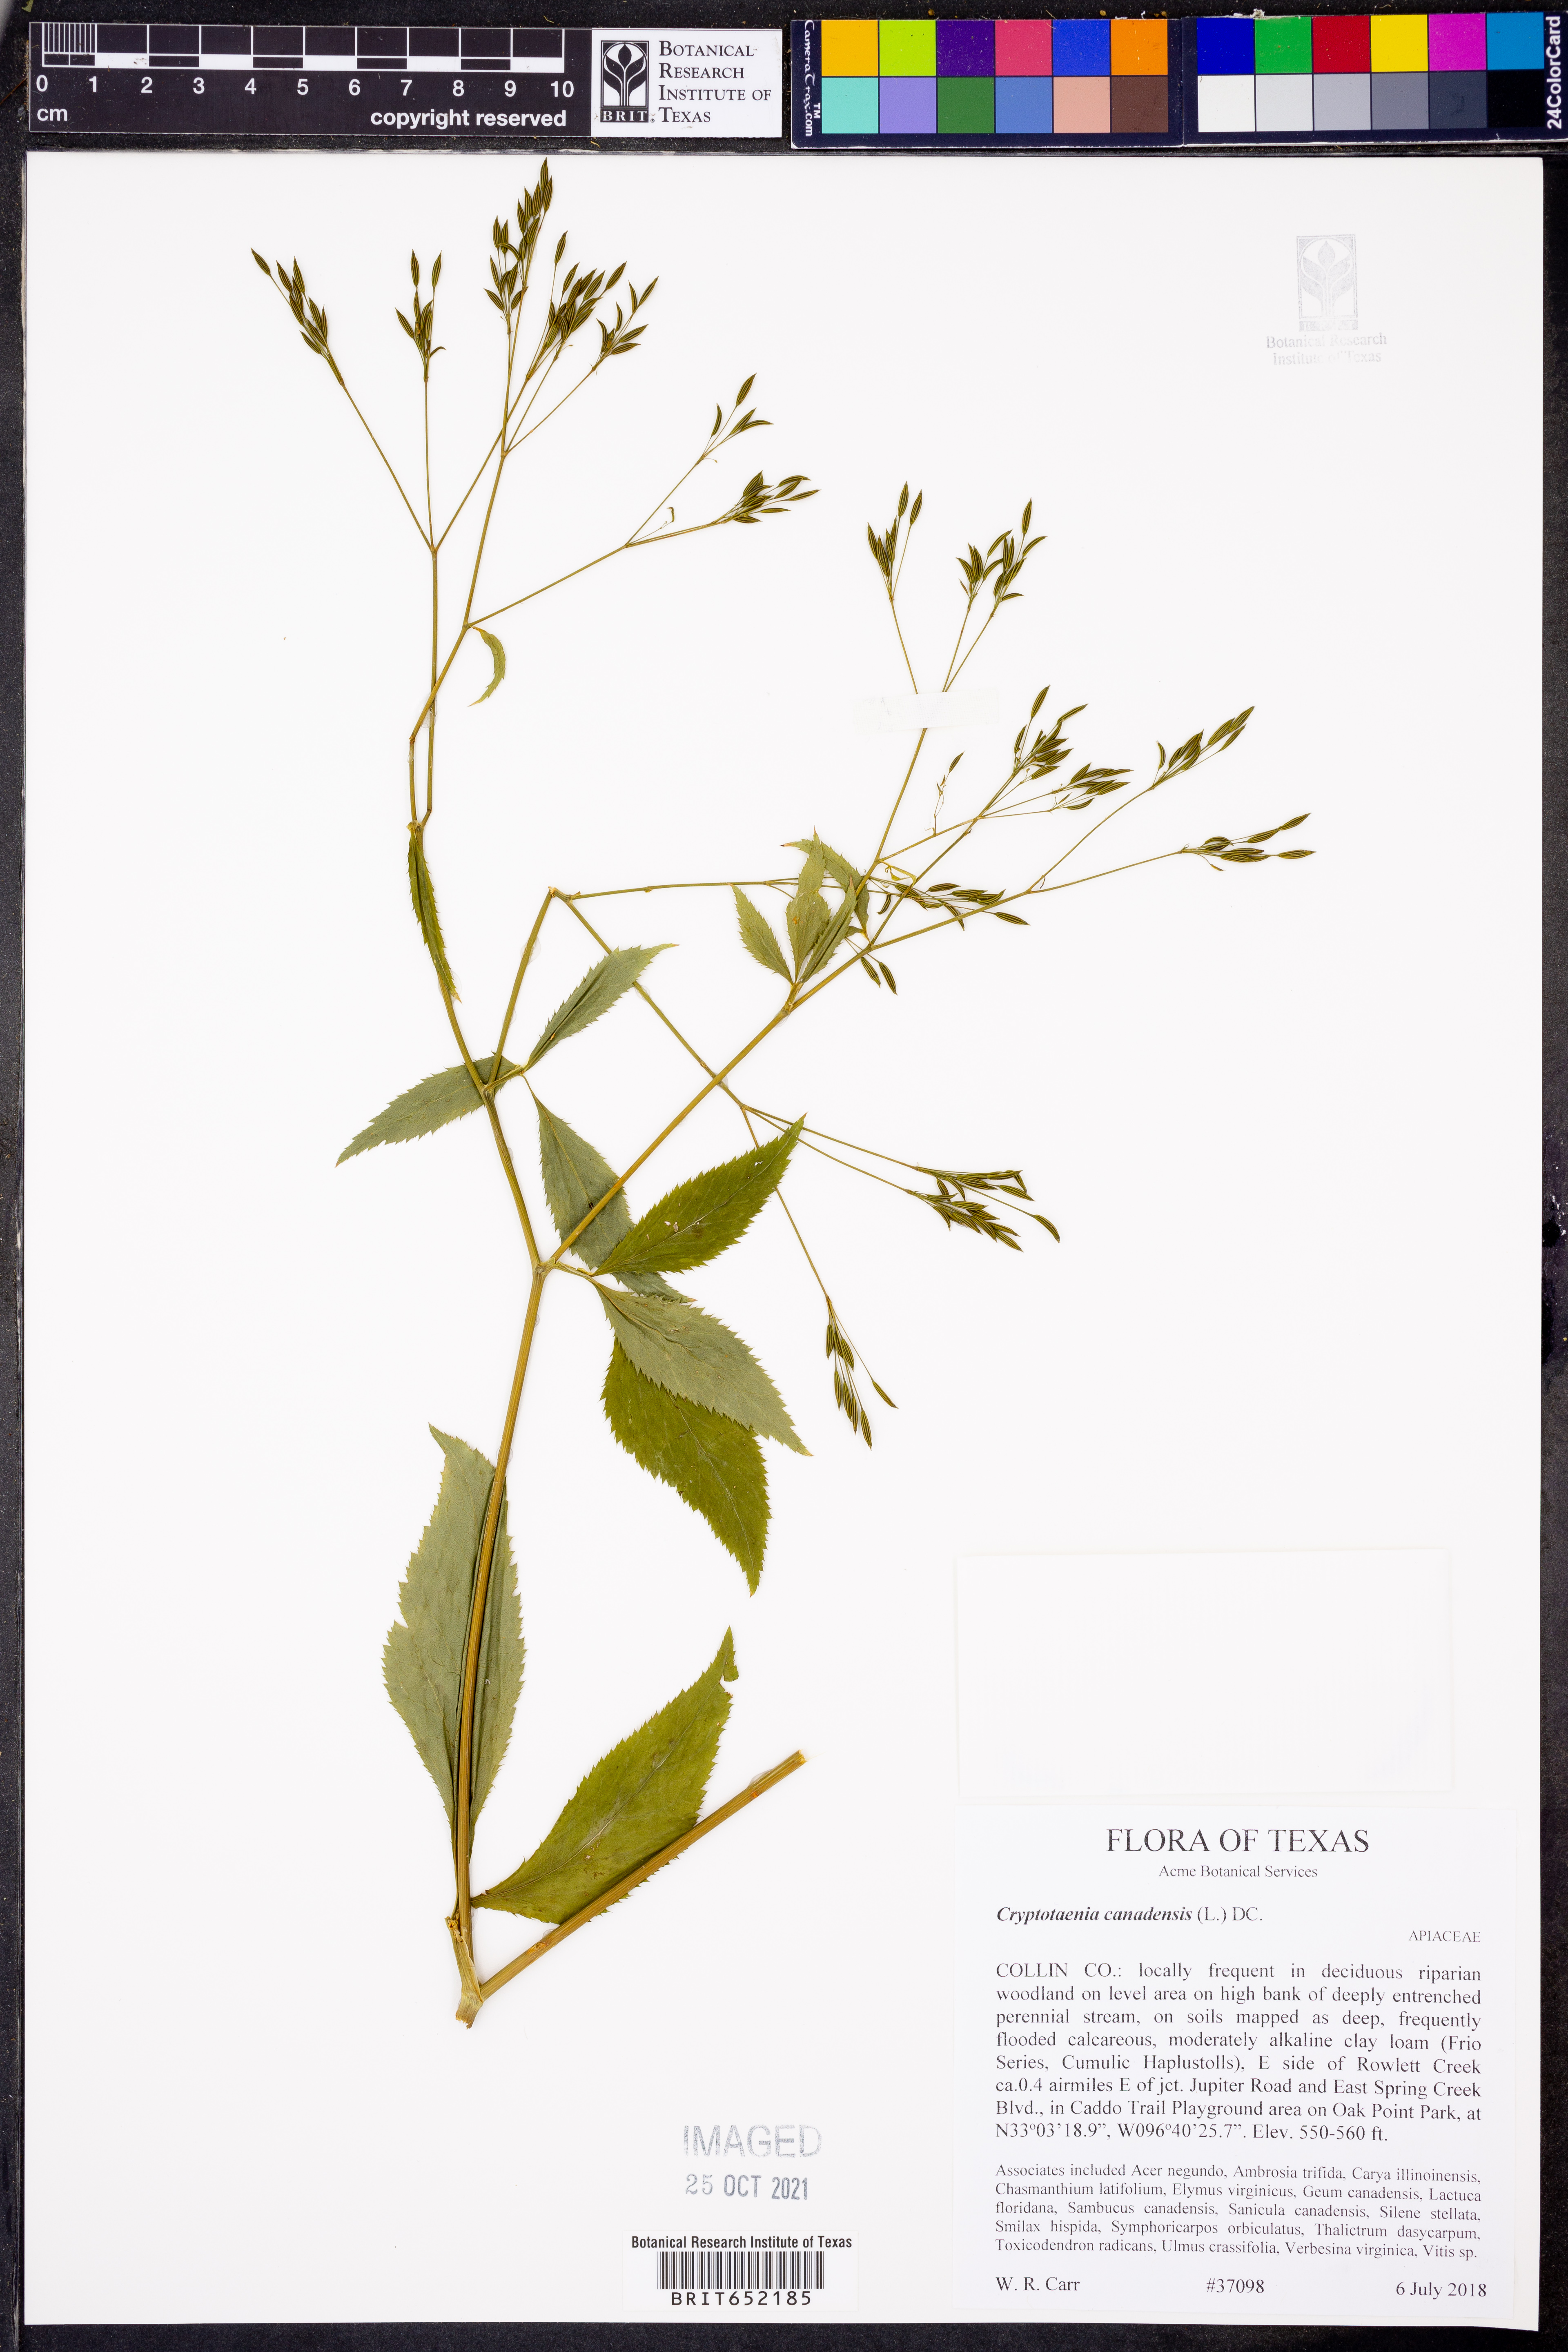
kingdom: Plantae
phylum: Tracheophyta
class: Magnoliopsida
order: Apiales
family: Apiaceae
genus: Cryptotaenia
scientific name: Cryptotaenia canadensis
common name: Honewort
